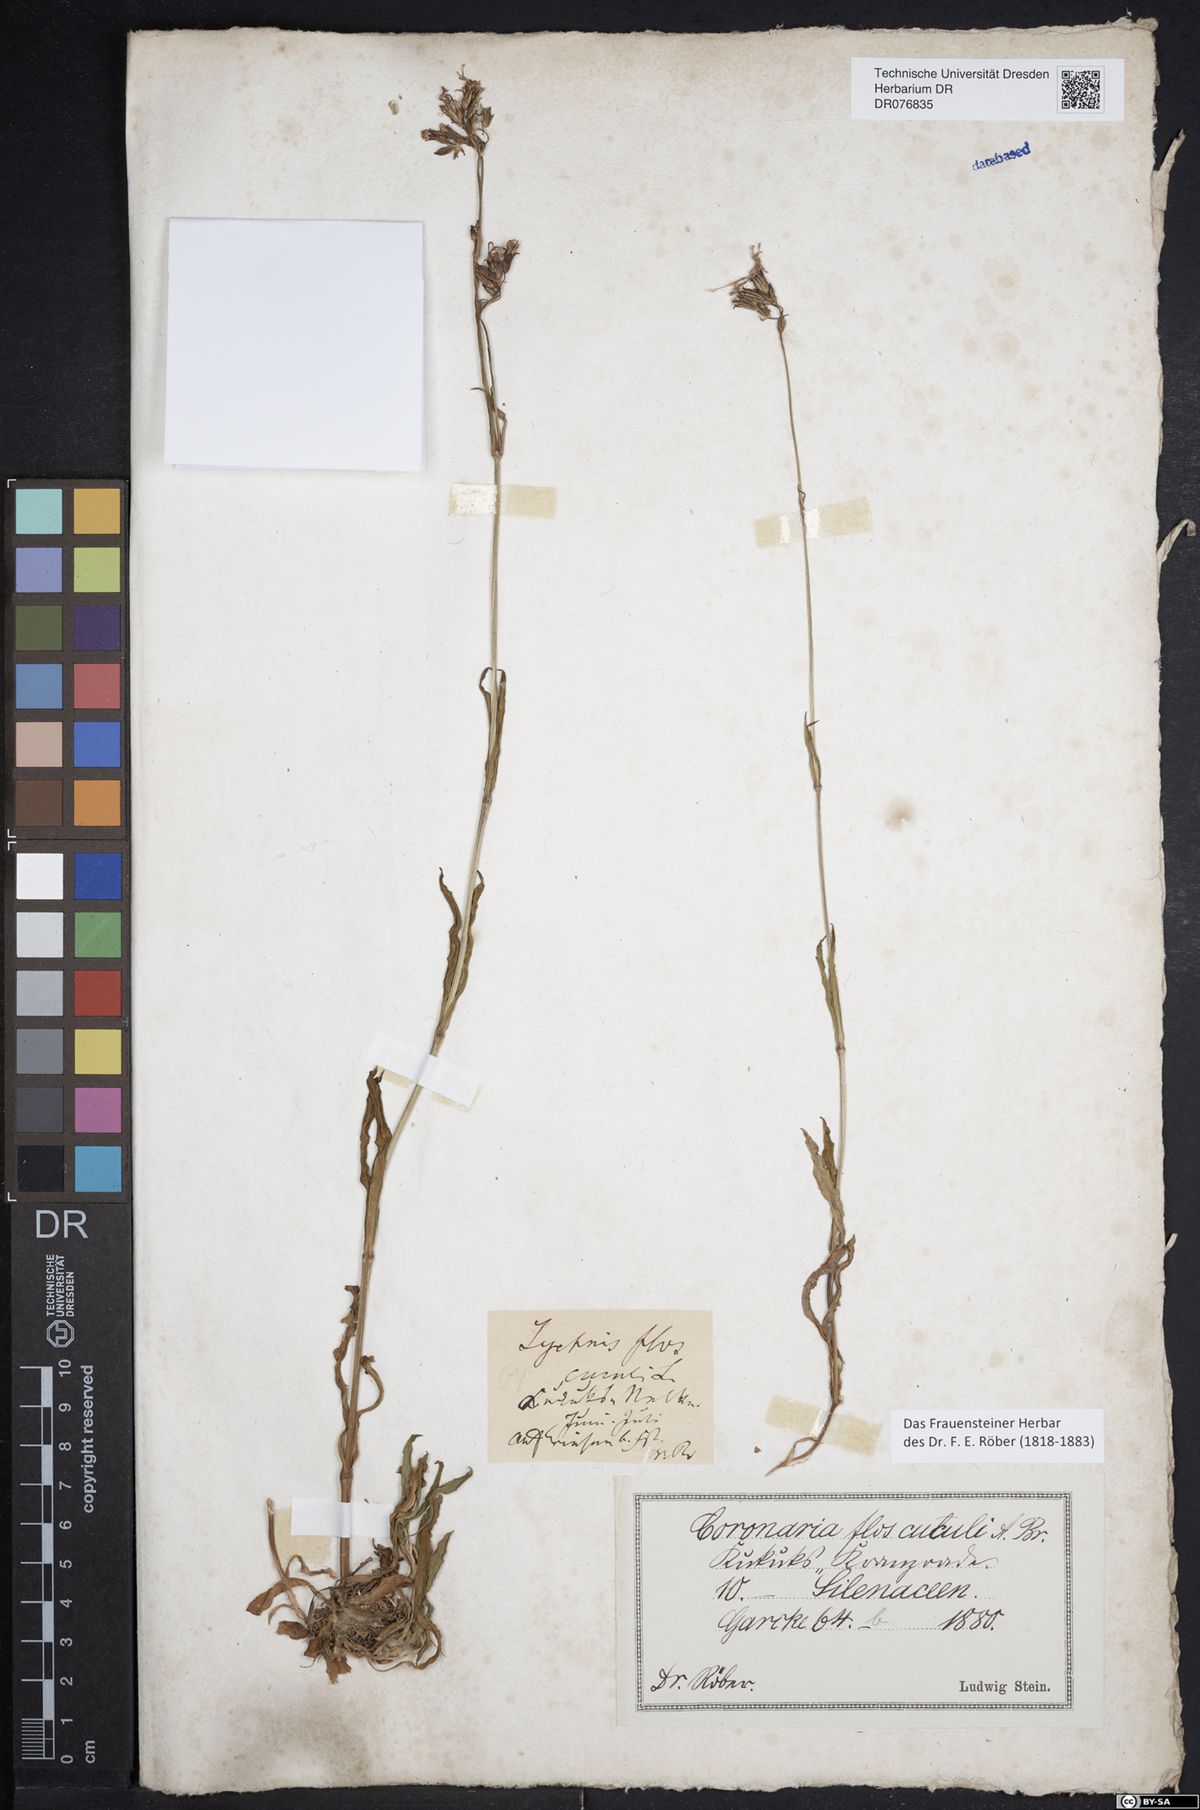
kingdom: Plantae
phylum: Tracheophyta
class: Magnoliopsida
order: Caryophyllales
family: Caryophyllaceae
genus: Silene
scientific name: Silene flos-cuculi
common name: Ragged-robin
